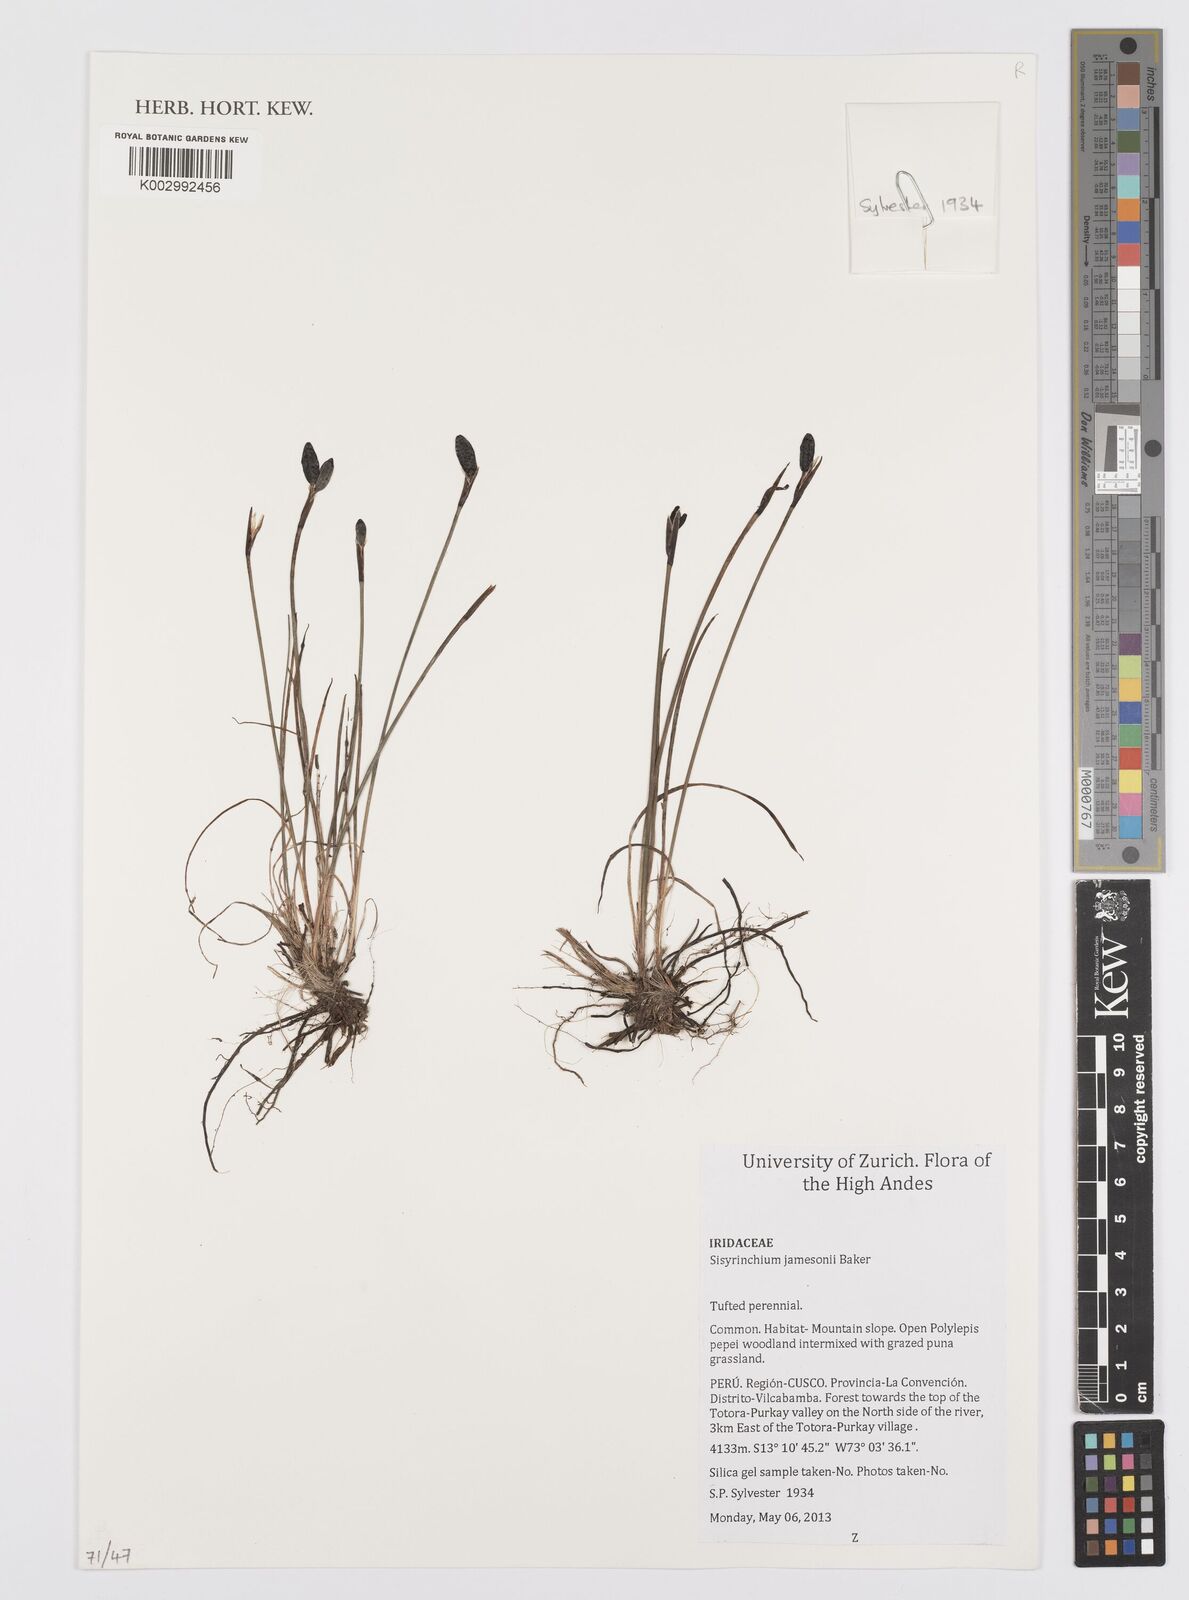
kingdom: Plantae
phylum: Tracheophyta
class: Liliopsida
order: Asparagales
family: Iridaceae
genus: Sisyrinchium
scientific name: Sisyrinchium jamesonii
